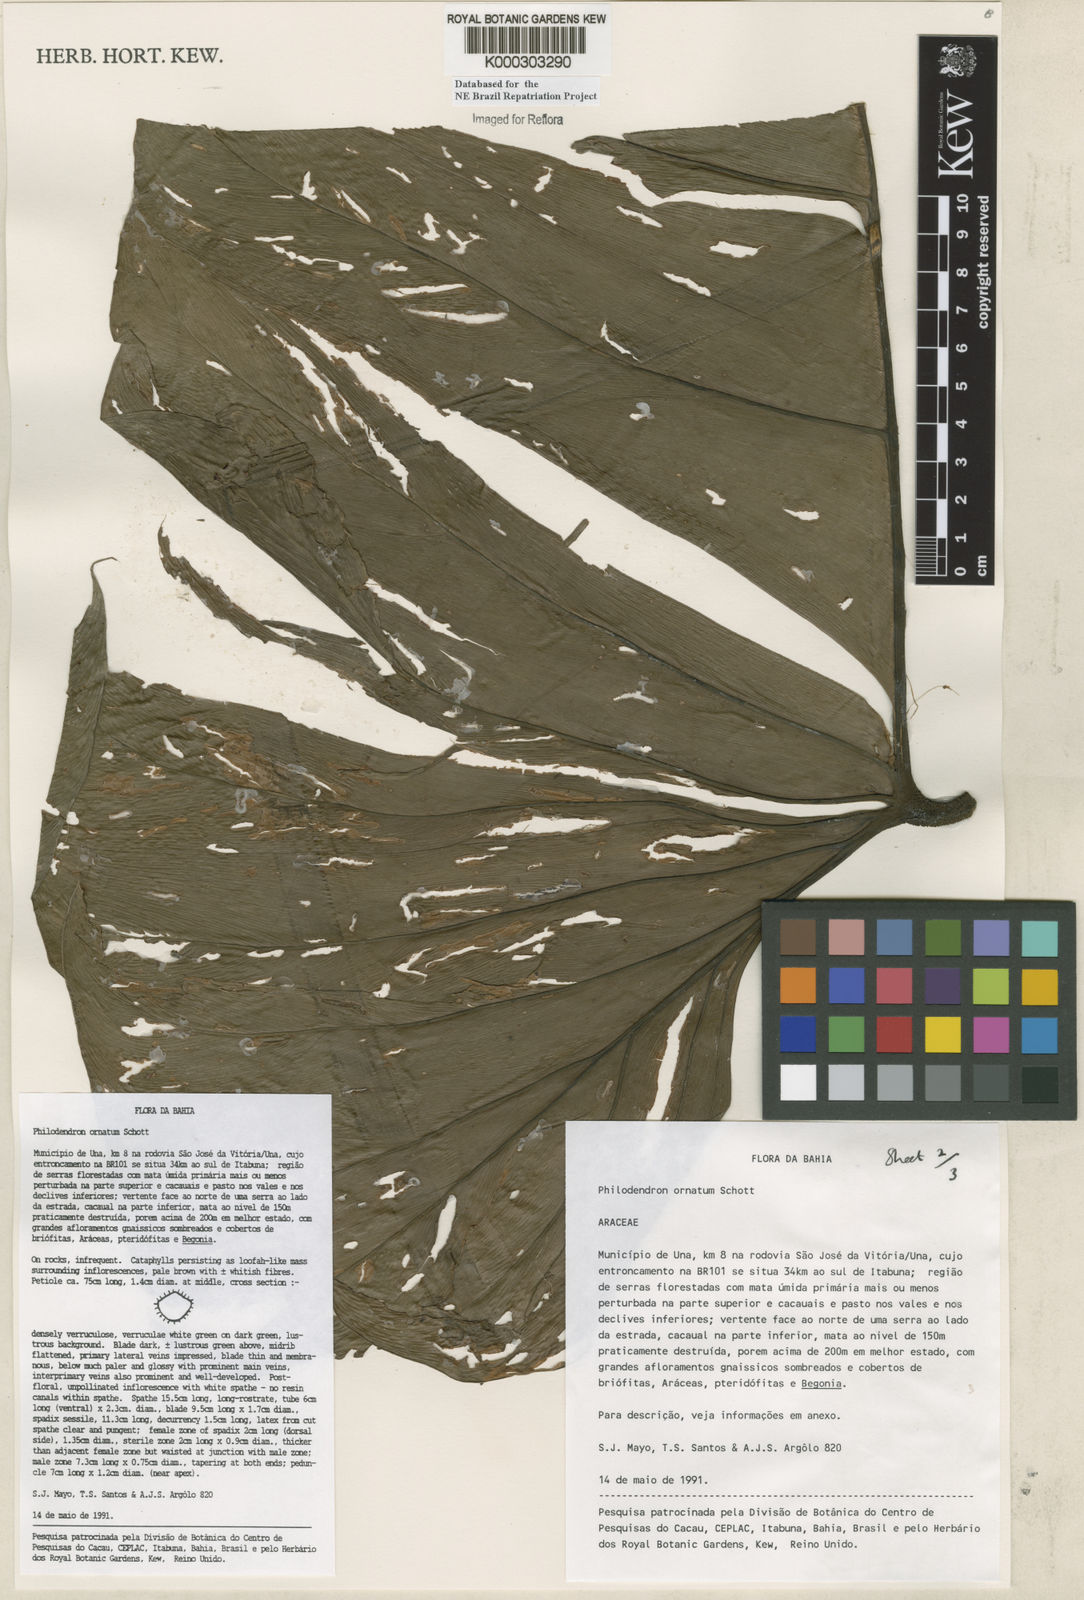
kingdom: Plantae
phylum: Tracheophyta
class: Liliopsida
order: Alismatales
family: Araceae
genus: Philodendron
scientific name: Philodendron ornatum
